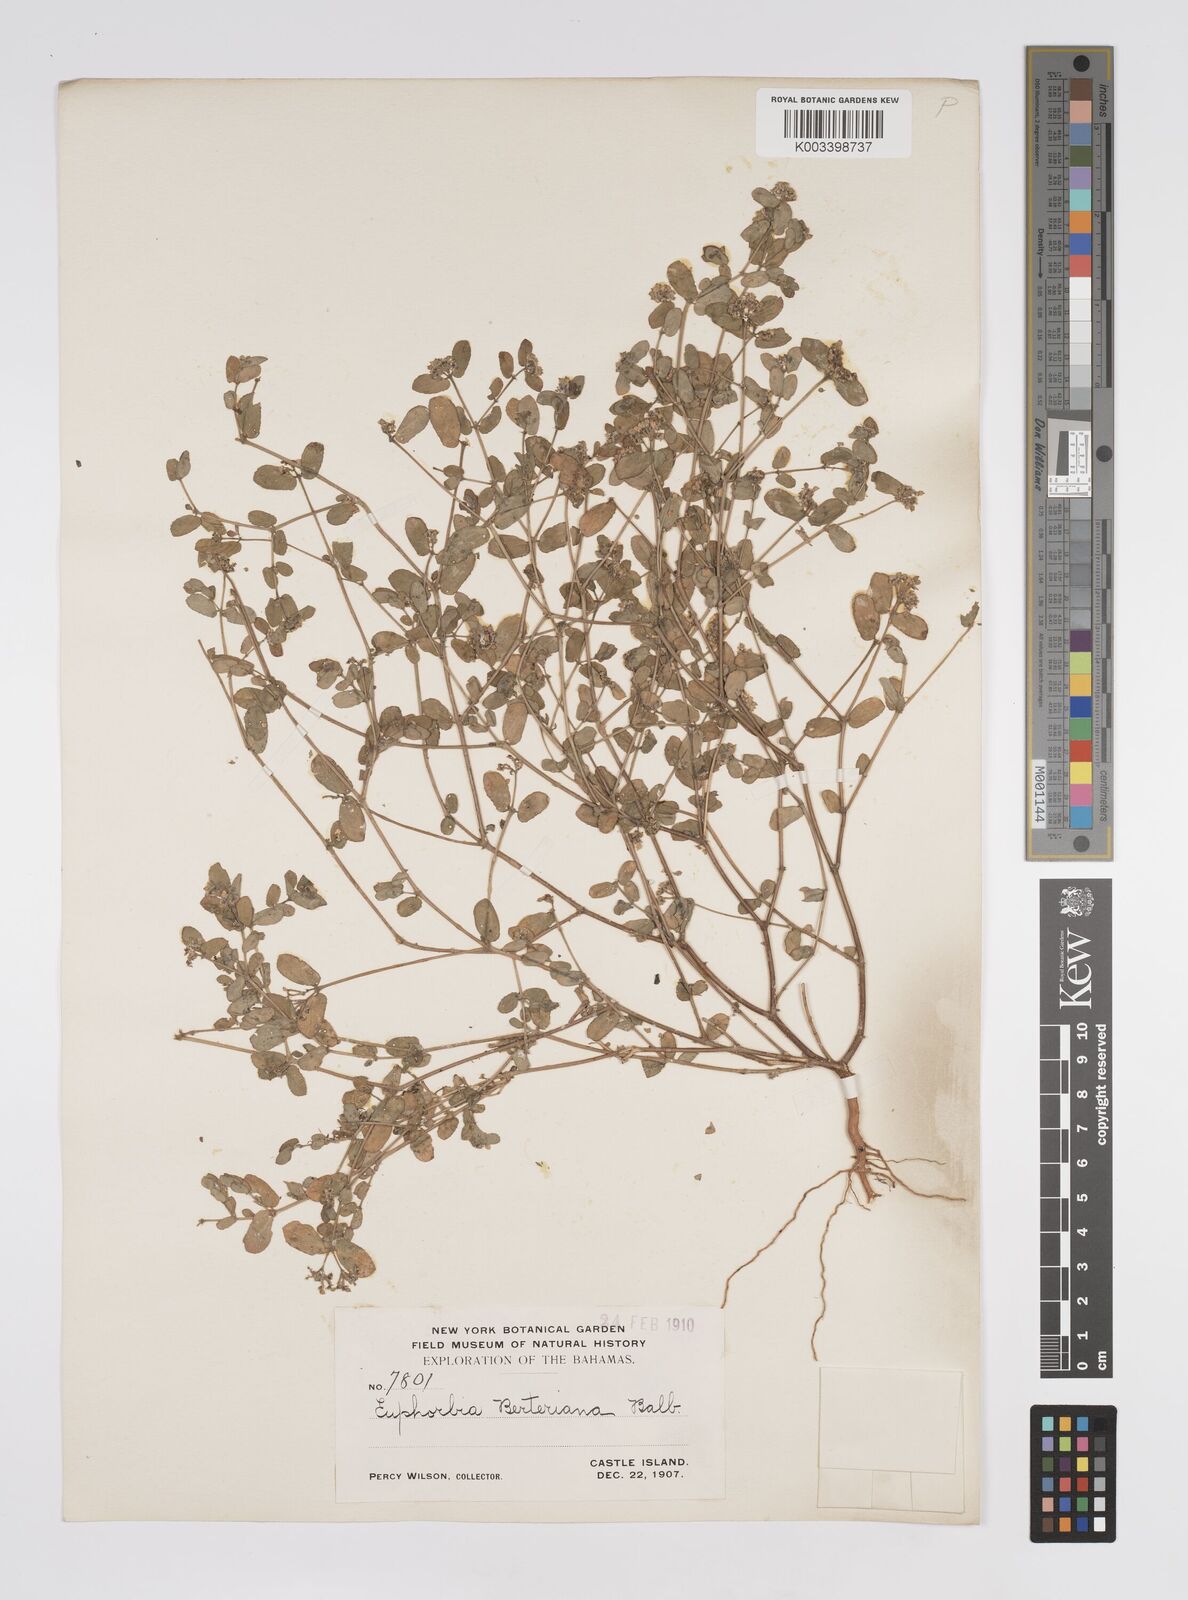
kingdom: Plantae
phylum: Tracheophyta
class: Magnoliopsida
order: Malpighiales
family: Euphorbiaceae
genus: Euphorbia
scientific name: Euphorbia berteroana
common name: Bertero's sandmat
